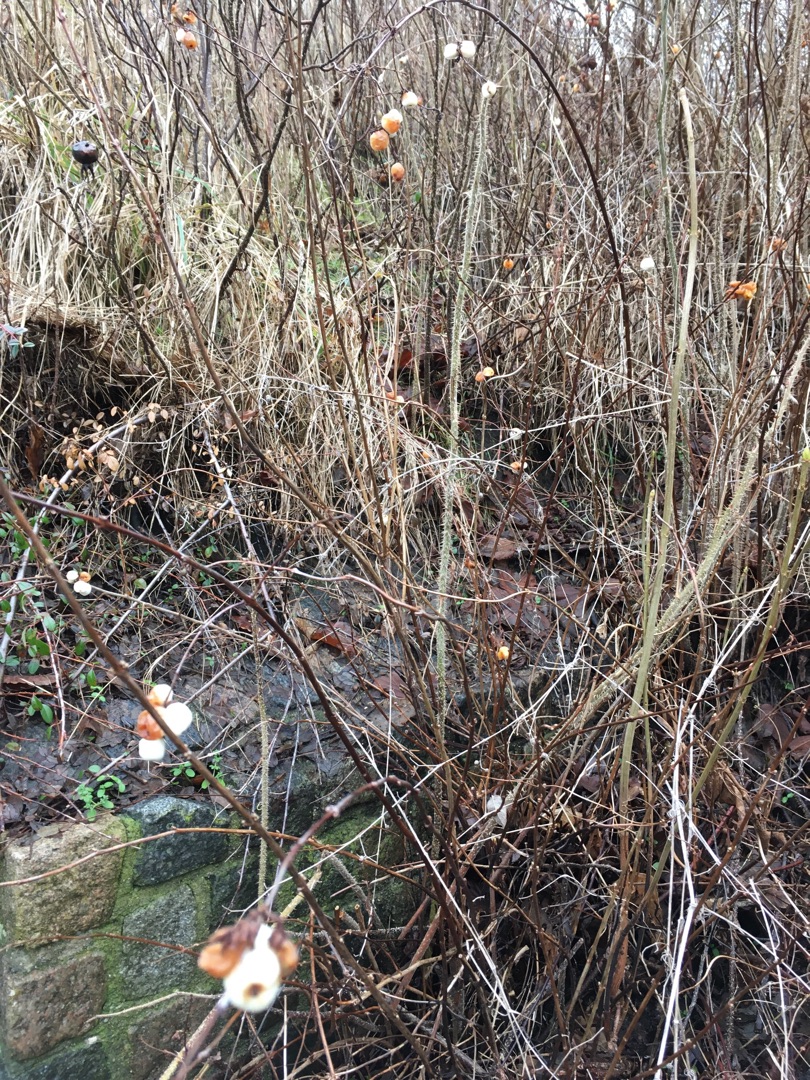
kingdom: Plantae
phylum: Tracheophyta
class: Magnoliopsida
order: Dipsacales
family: Caprifoliaceae
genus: Symphoricarpos
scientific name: Symphoricarpos albus
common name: Almindelig snebær
